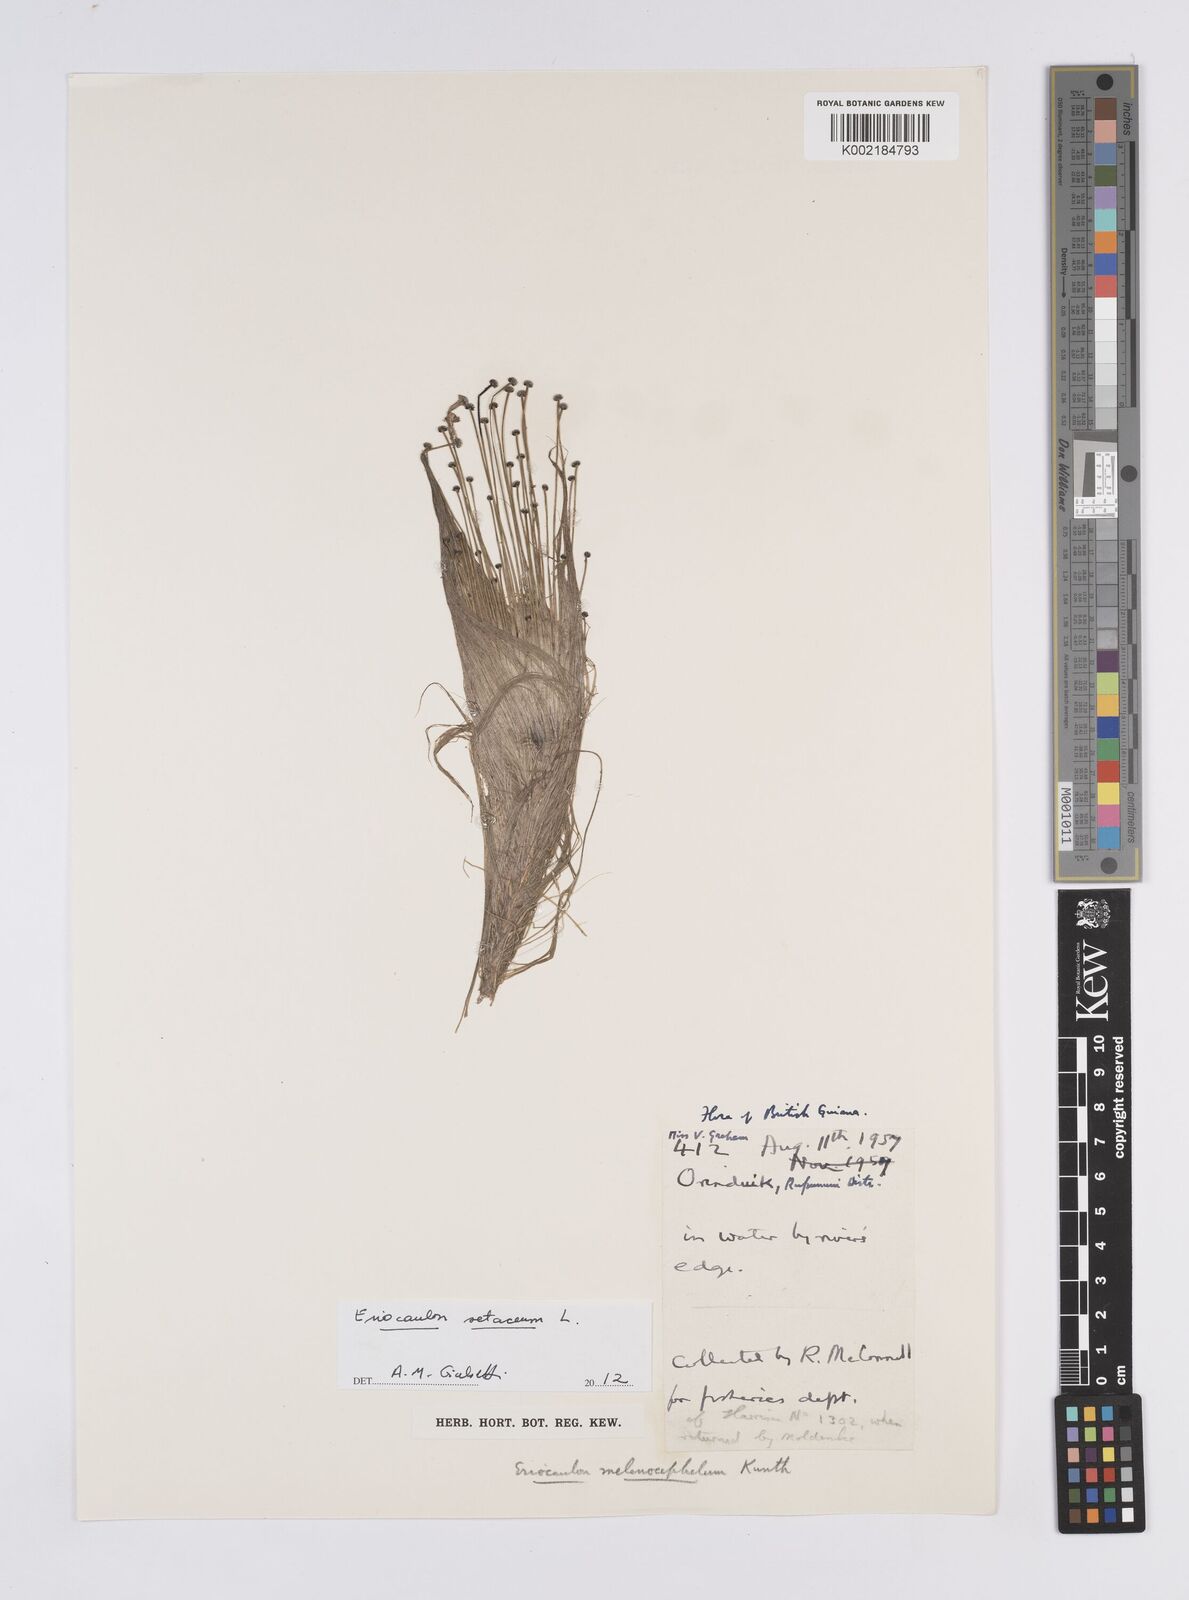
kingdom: Plantae
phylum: Tracheophyta
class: Liliopsida
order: Poales
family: Eriocaulaceae
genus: Eriocaulon
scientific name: Eriocaulon setaceum
